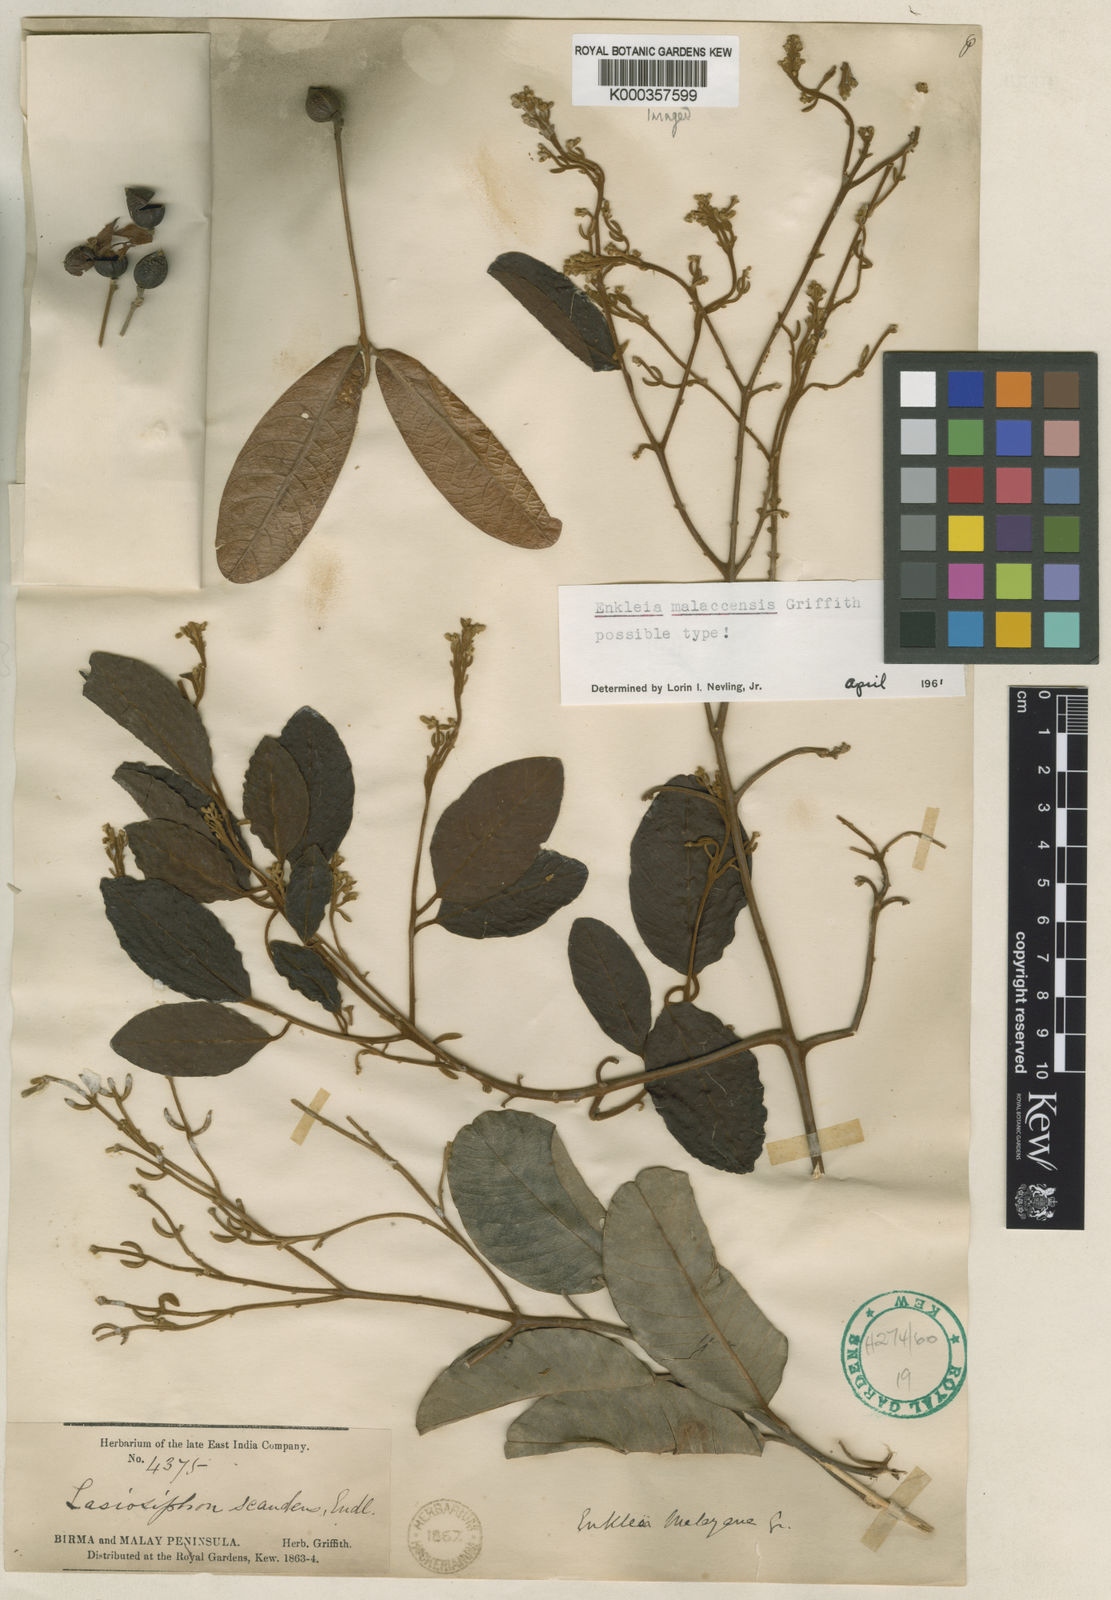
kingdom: Plantae
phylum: Tracheophyta
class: Magnoliopsida
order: Malvales
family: Thymelaeaceae
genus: Enkleia
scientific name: Enkleia malaccensis
